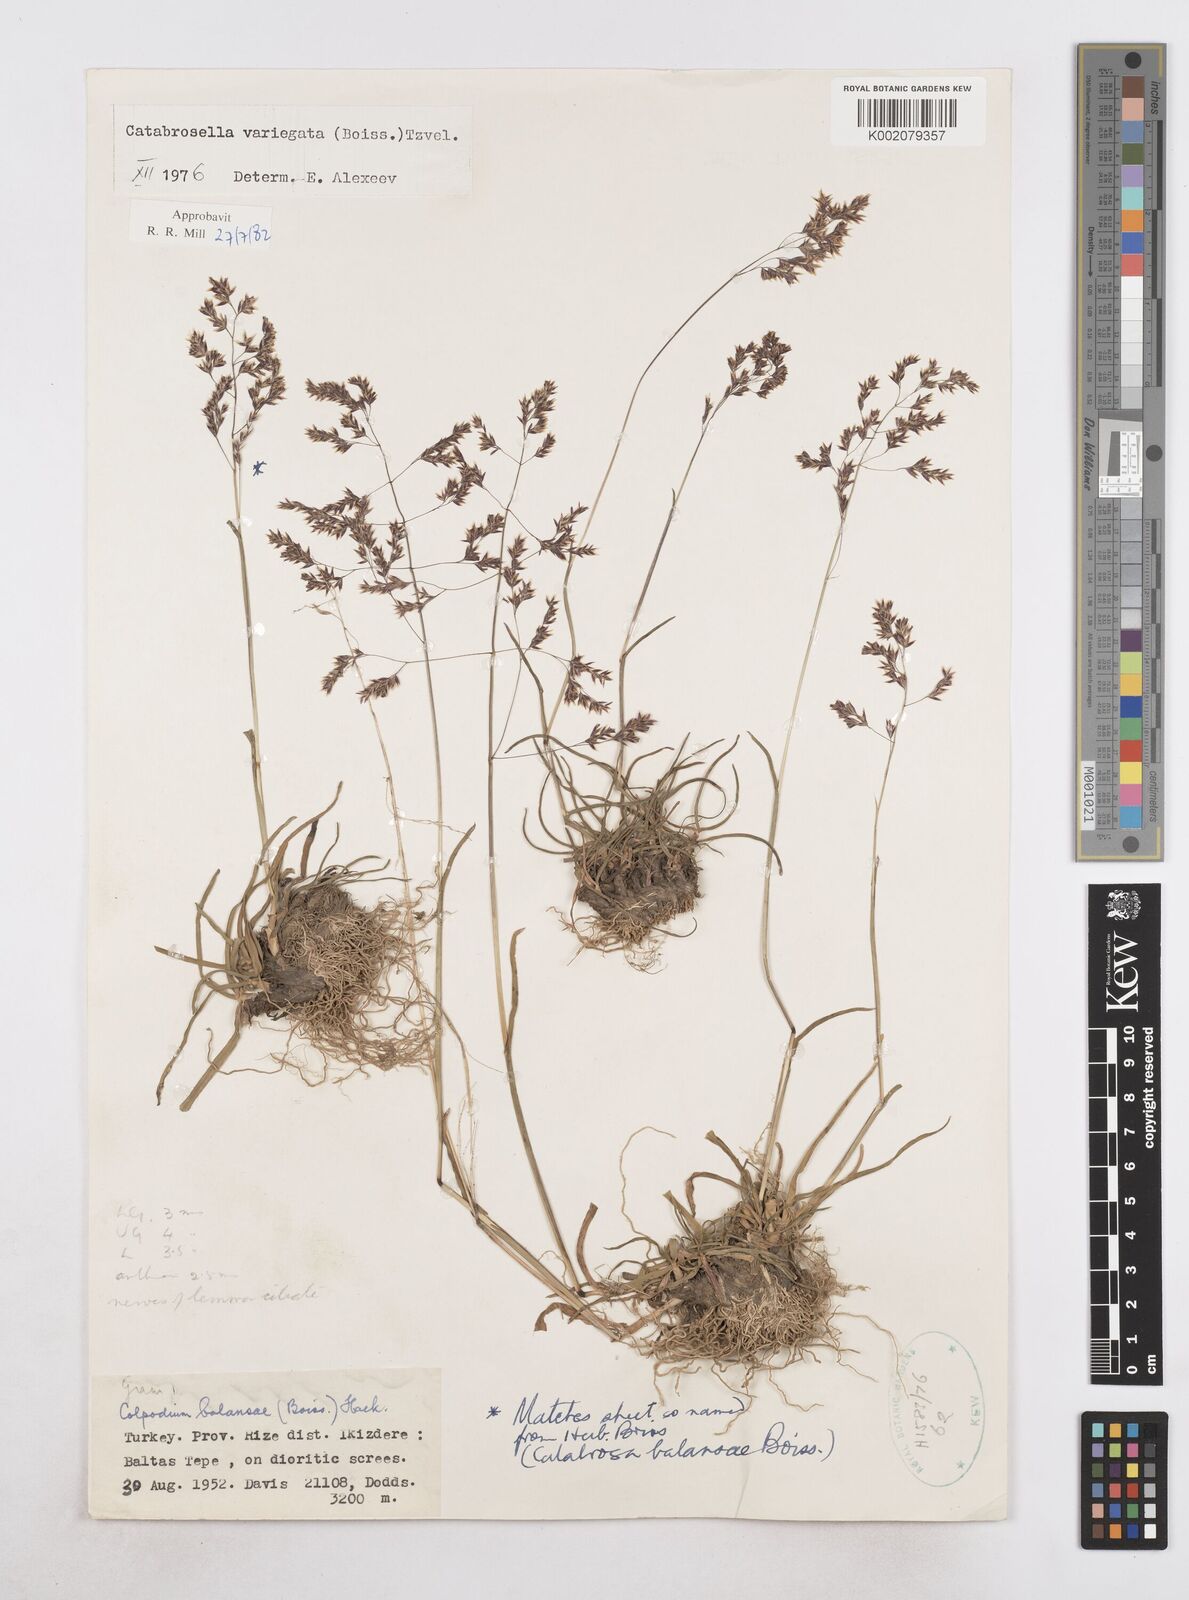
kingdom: Plantae
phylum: Tracheophyta
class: Liliopsida
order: Poales
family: Poaceae
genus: Catabrosella
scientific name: Catabrosella variegata
